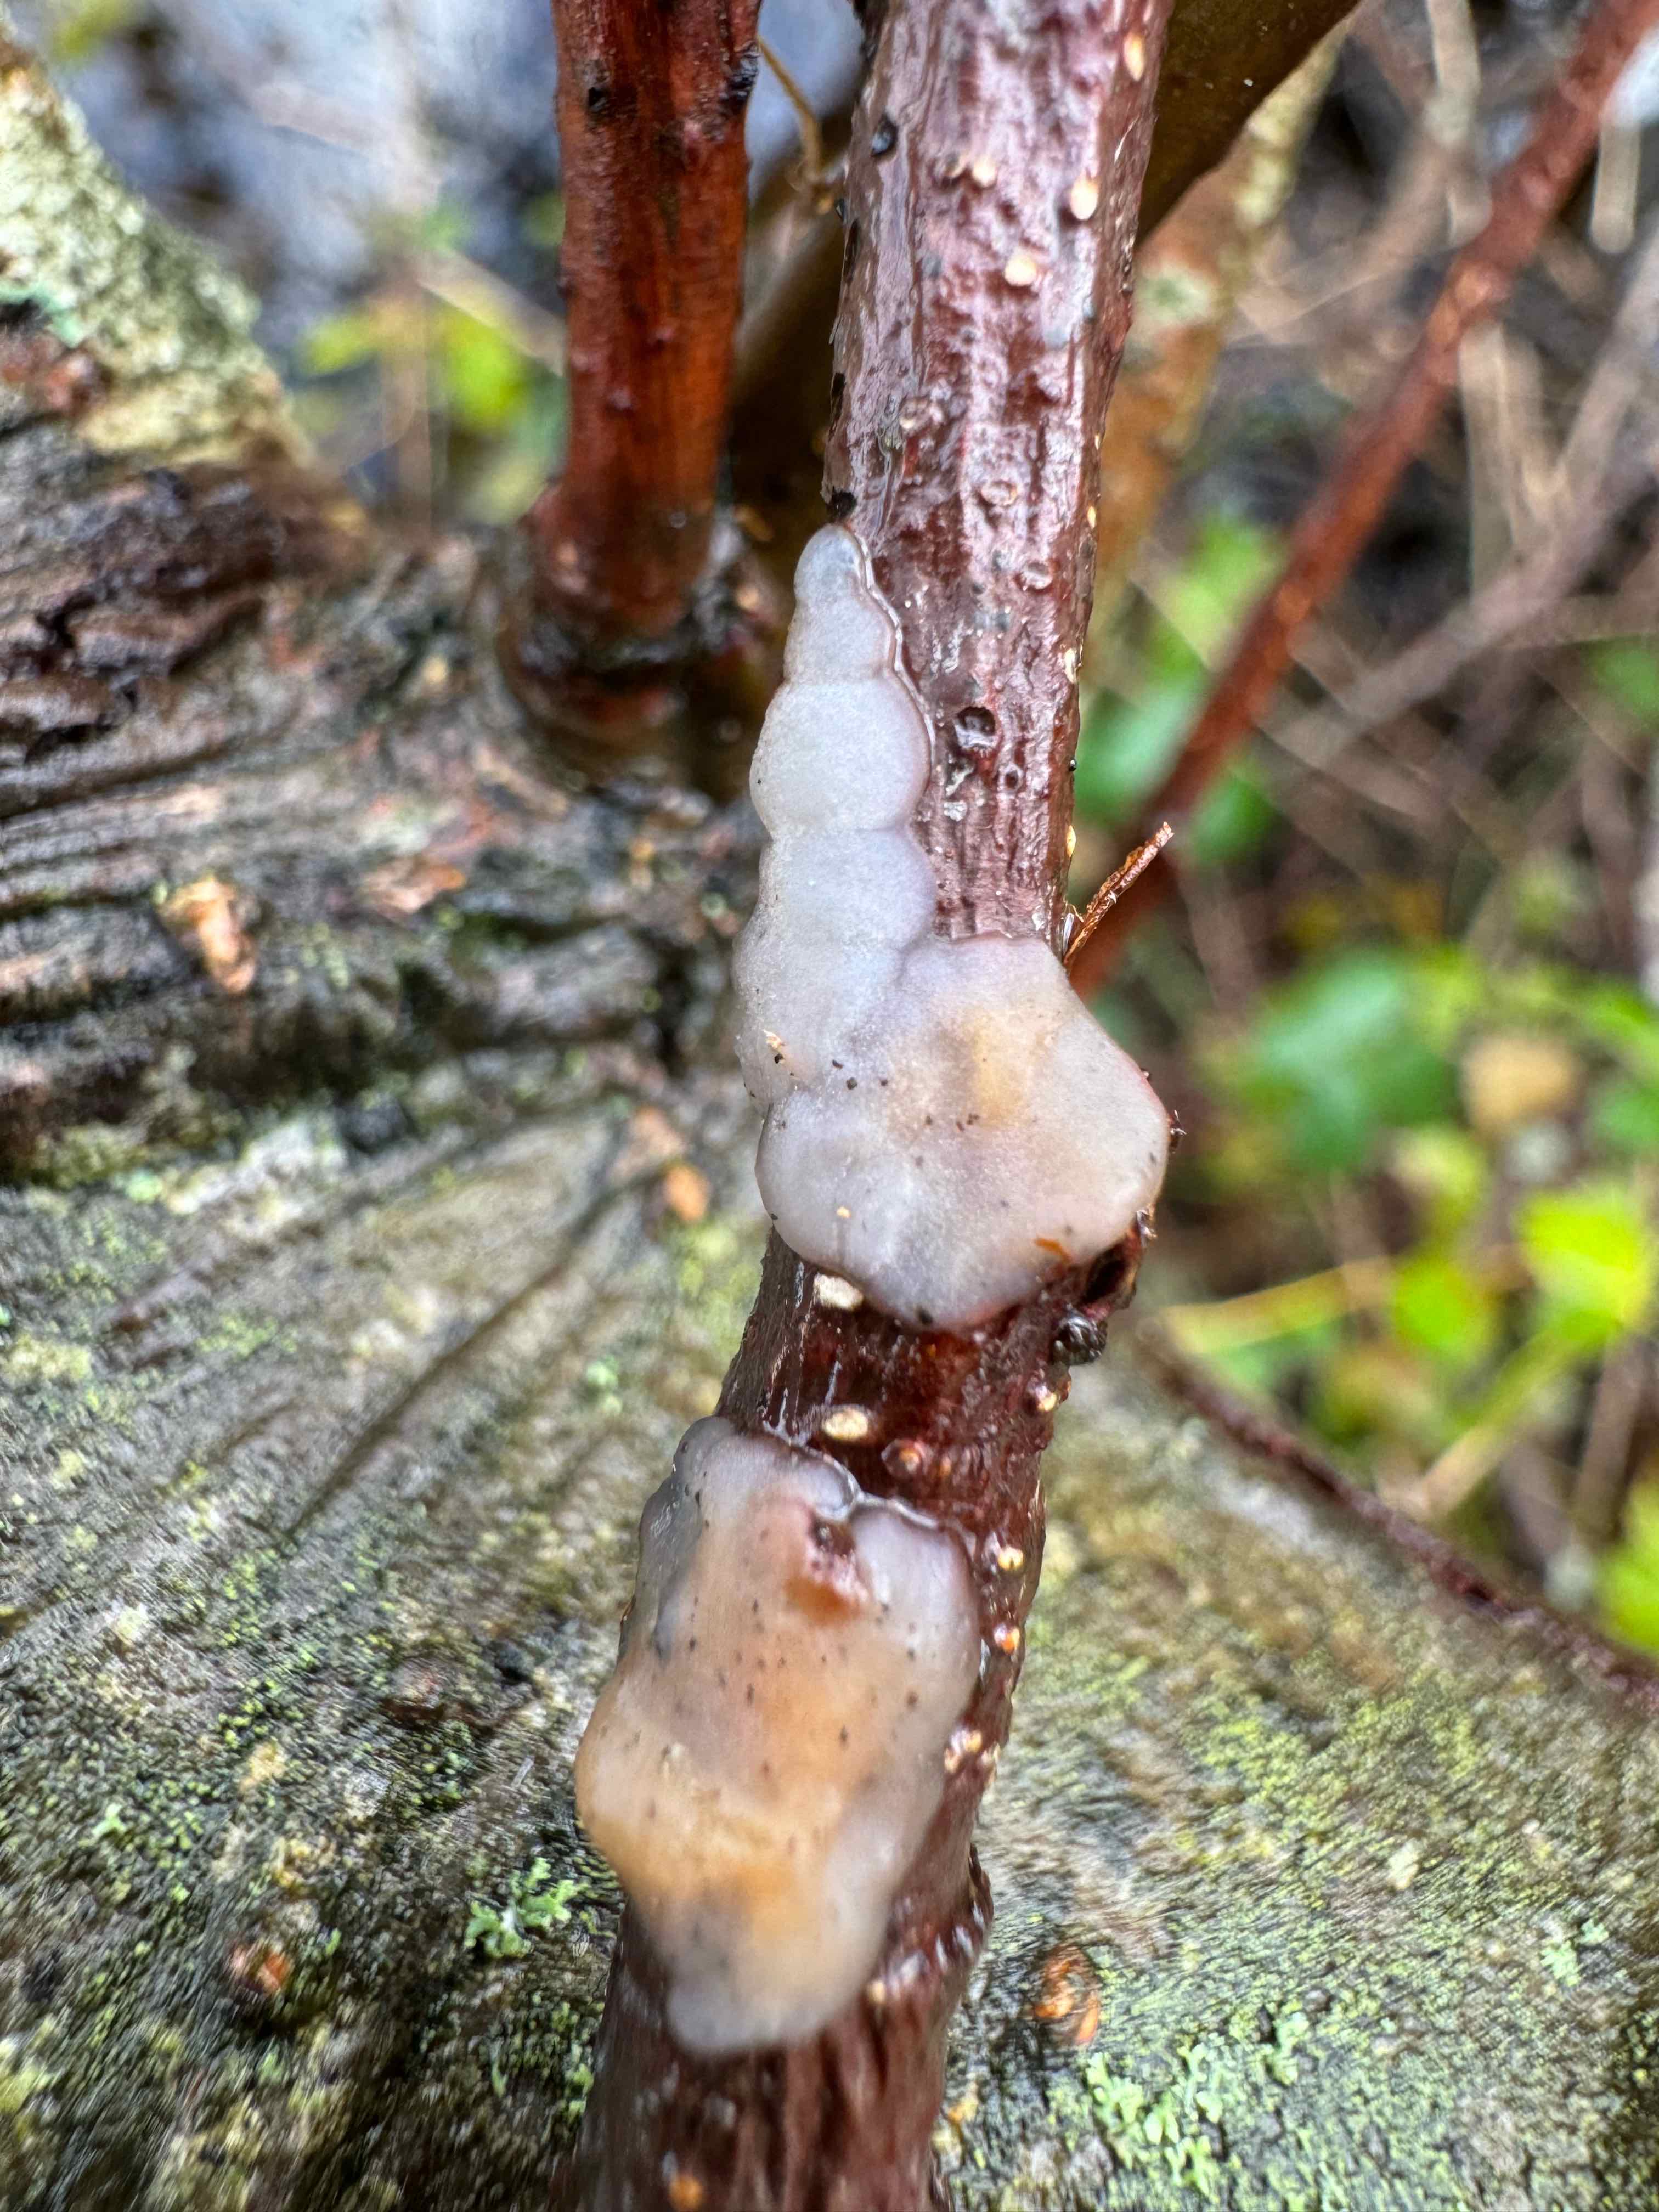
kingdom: Fungi
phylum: Basidiomycota
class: Agaricomycetes
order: Auriculariales
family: Auriculariaceae
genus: Exidia
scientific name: Exidia thuretiana
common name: hvidlig bævretop
